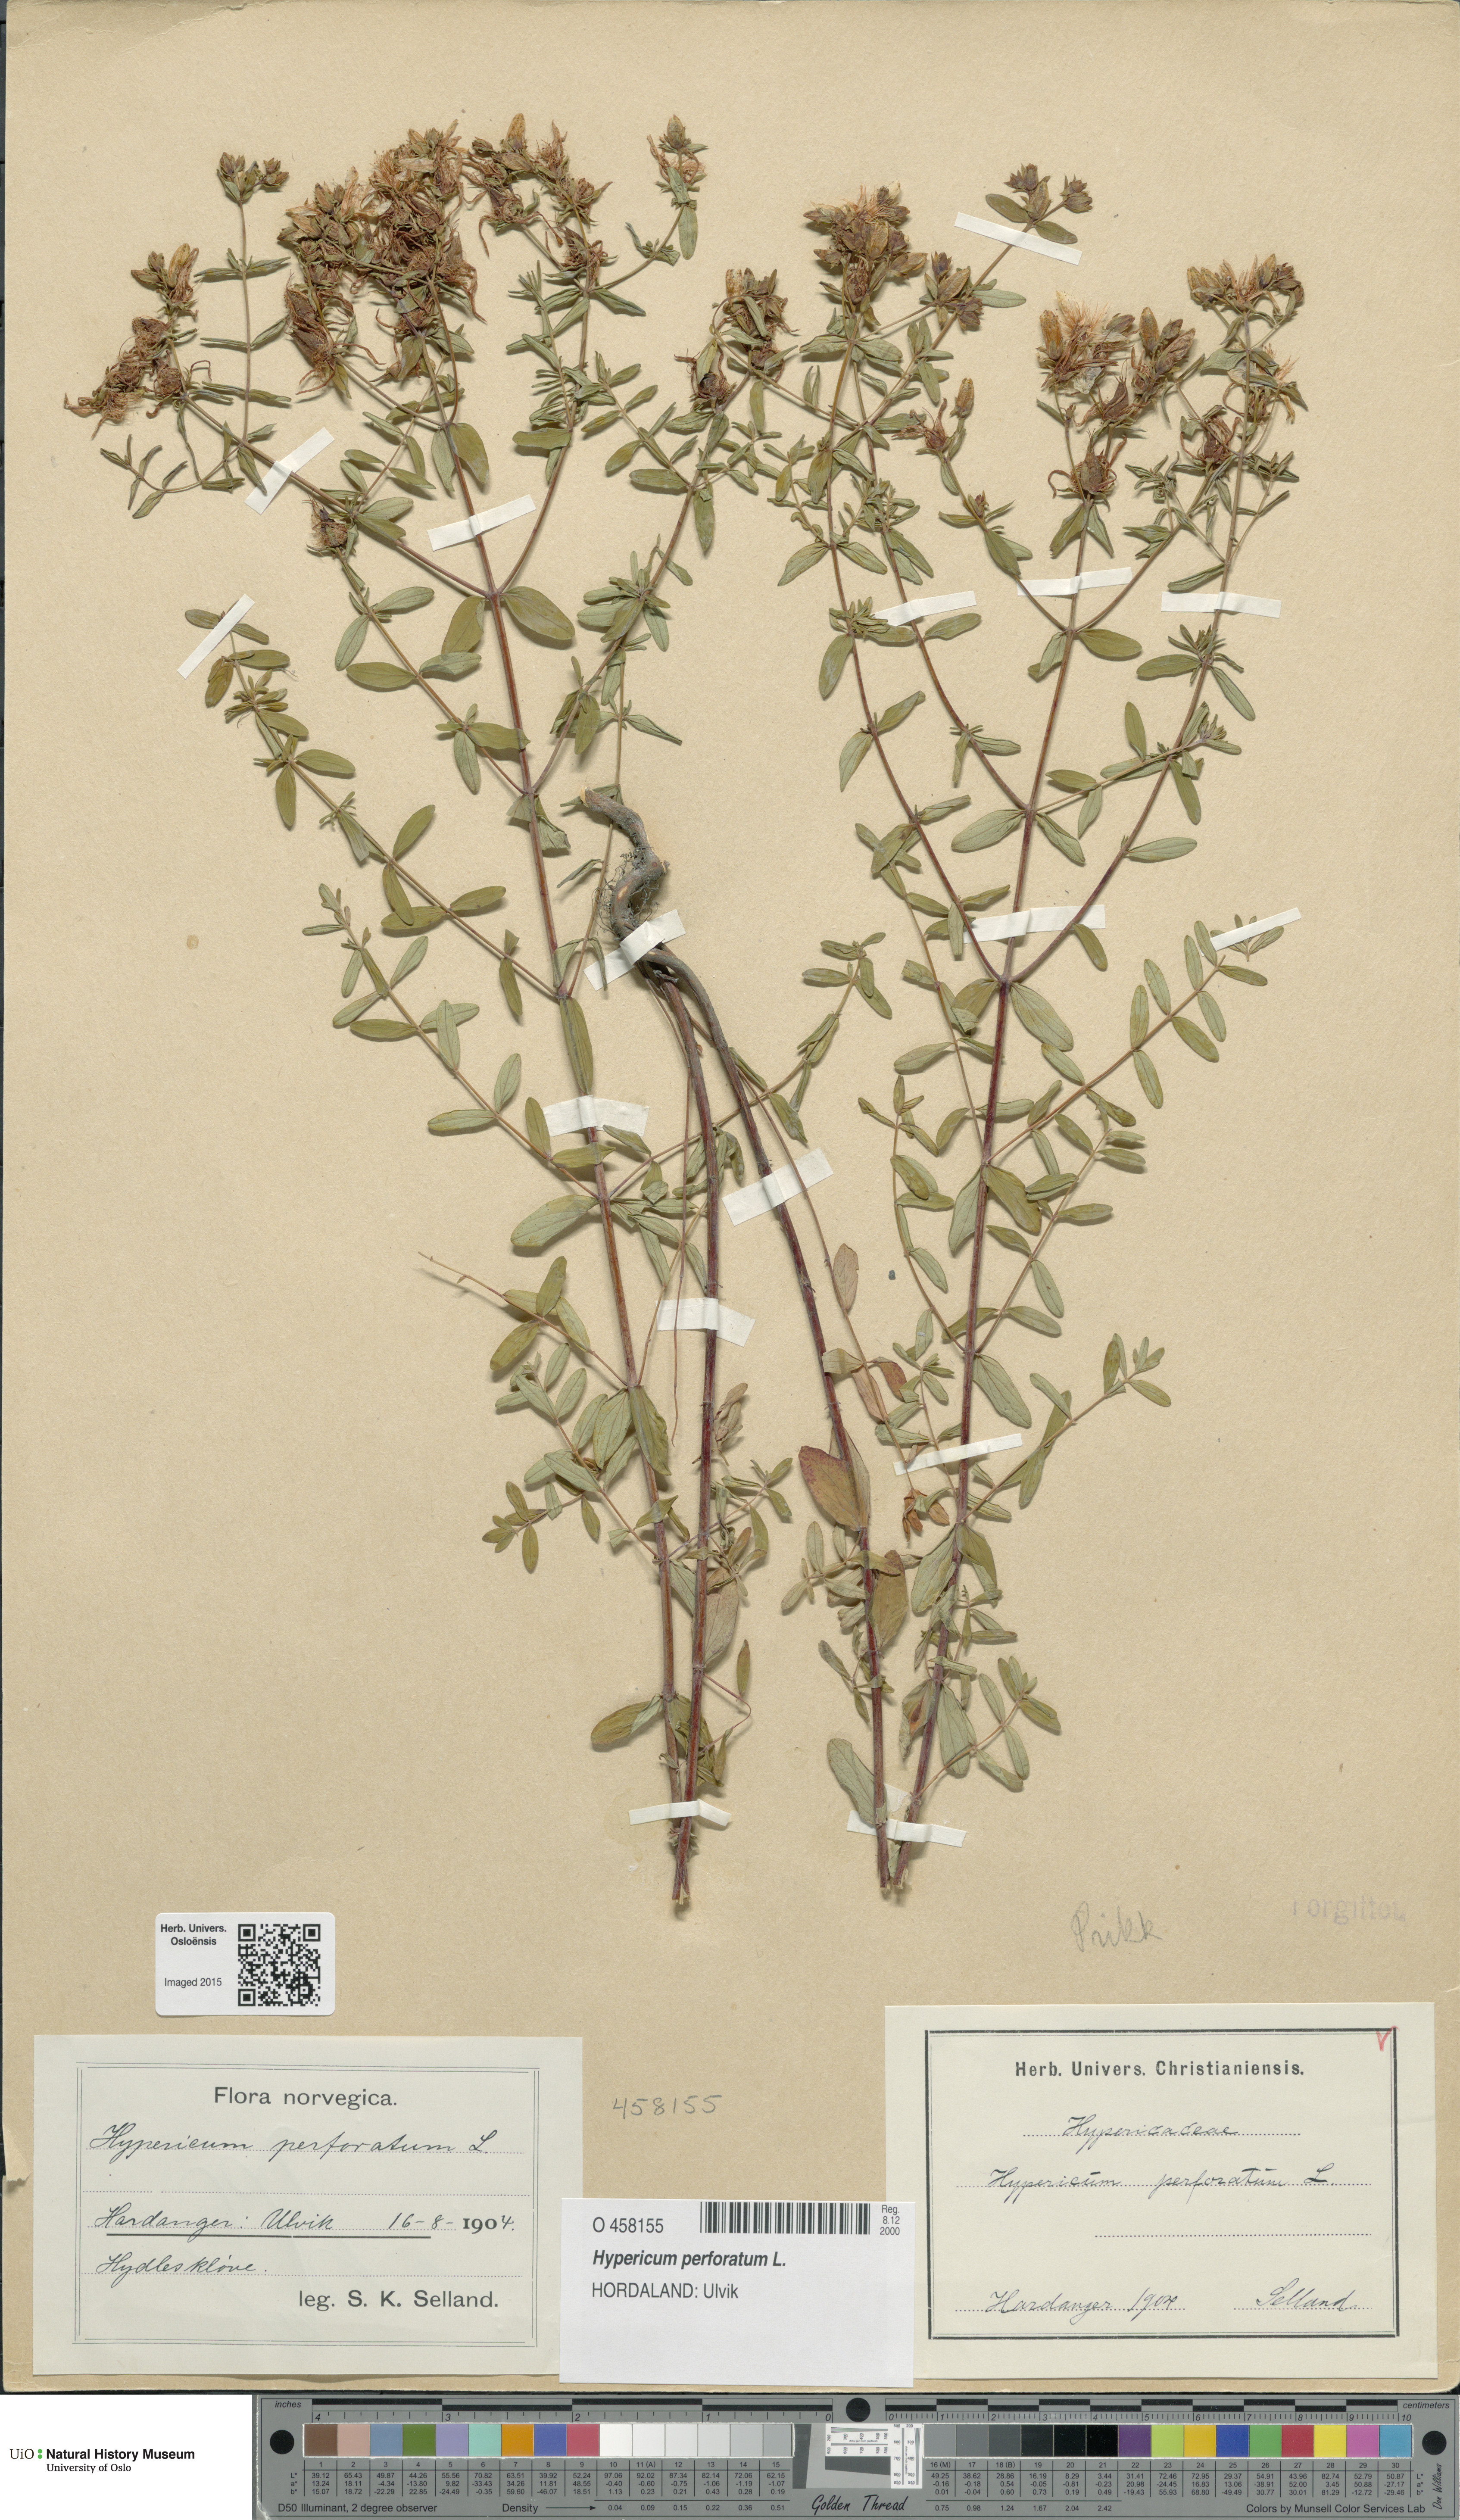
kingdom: Plantae
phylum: Tracheophyta
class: Magnoliopsida
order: Malpighiales
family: Hypericaceae
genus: Hypericum
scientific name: Hypericum perforatum
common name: Common st. johnswort
